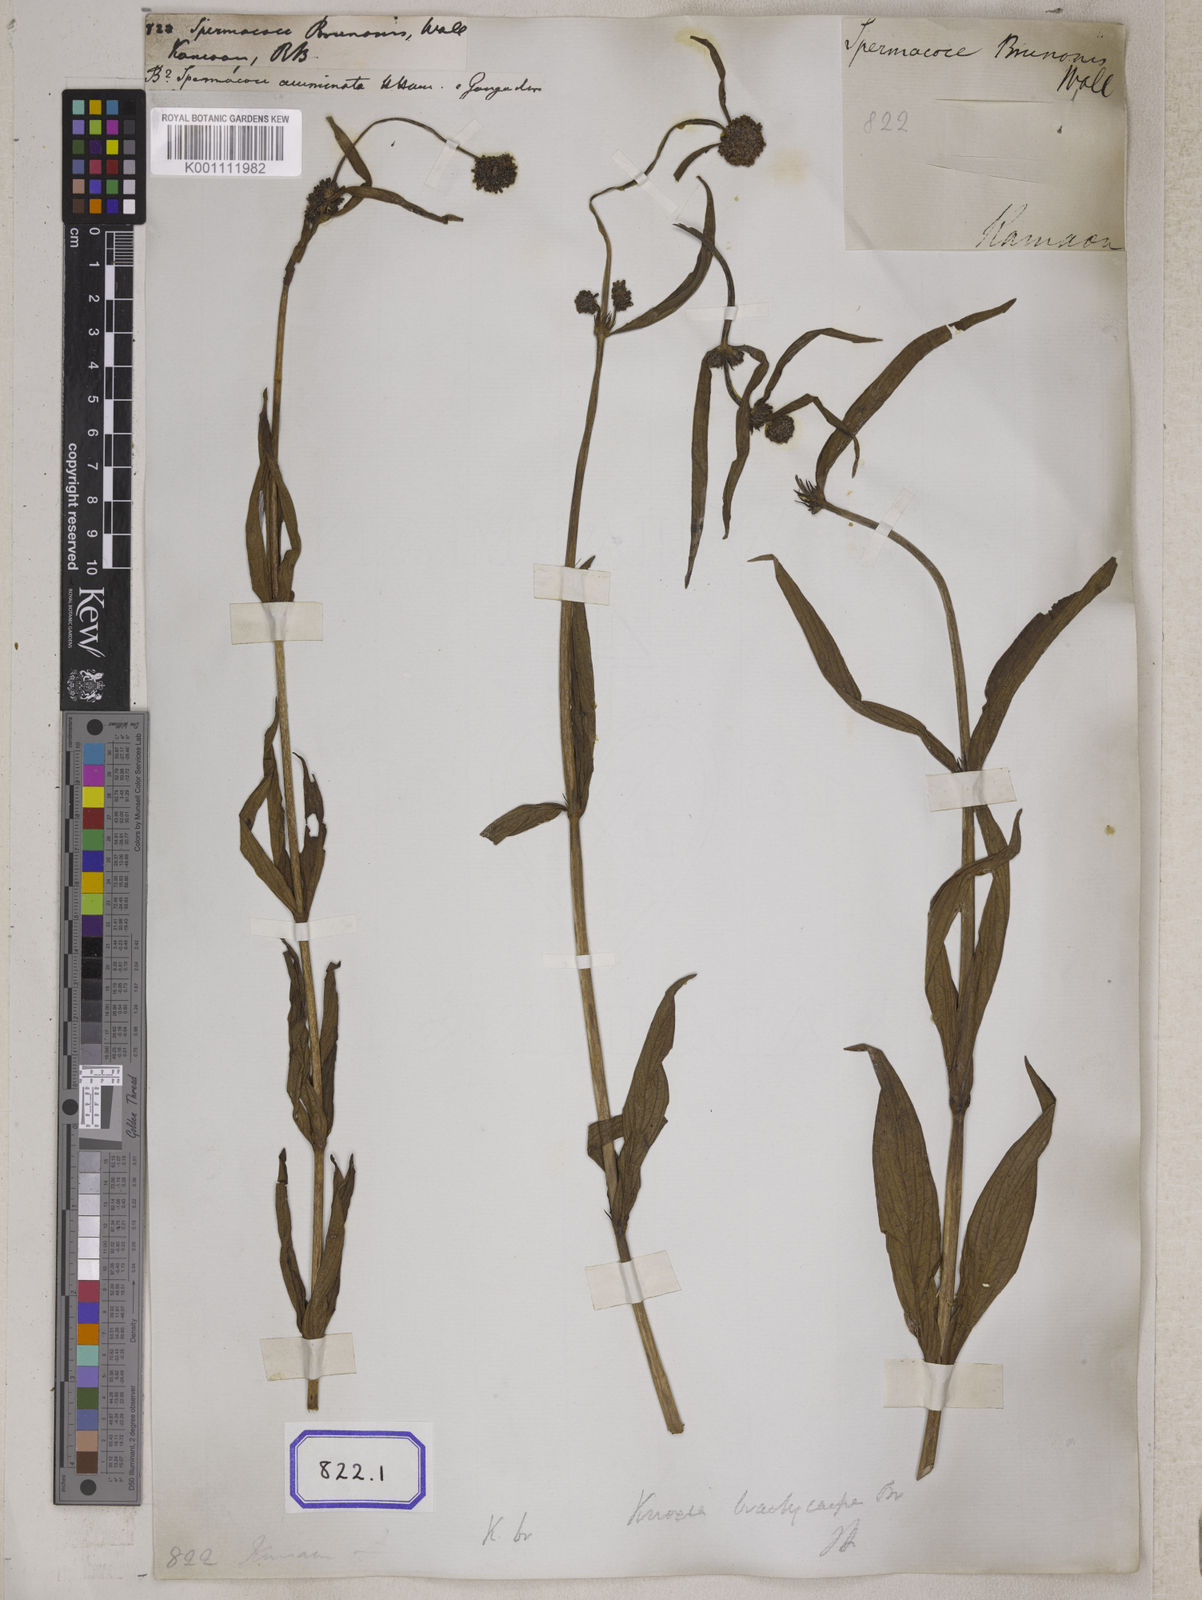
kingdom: Plantae
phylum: Tracheophyta
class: Magnoliopsida
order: Gentianales
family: Rubiaceae
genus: Spermacoce
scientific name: Spermacoce
